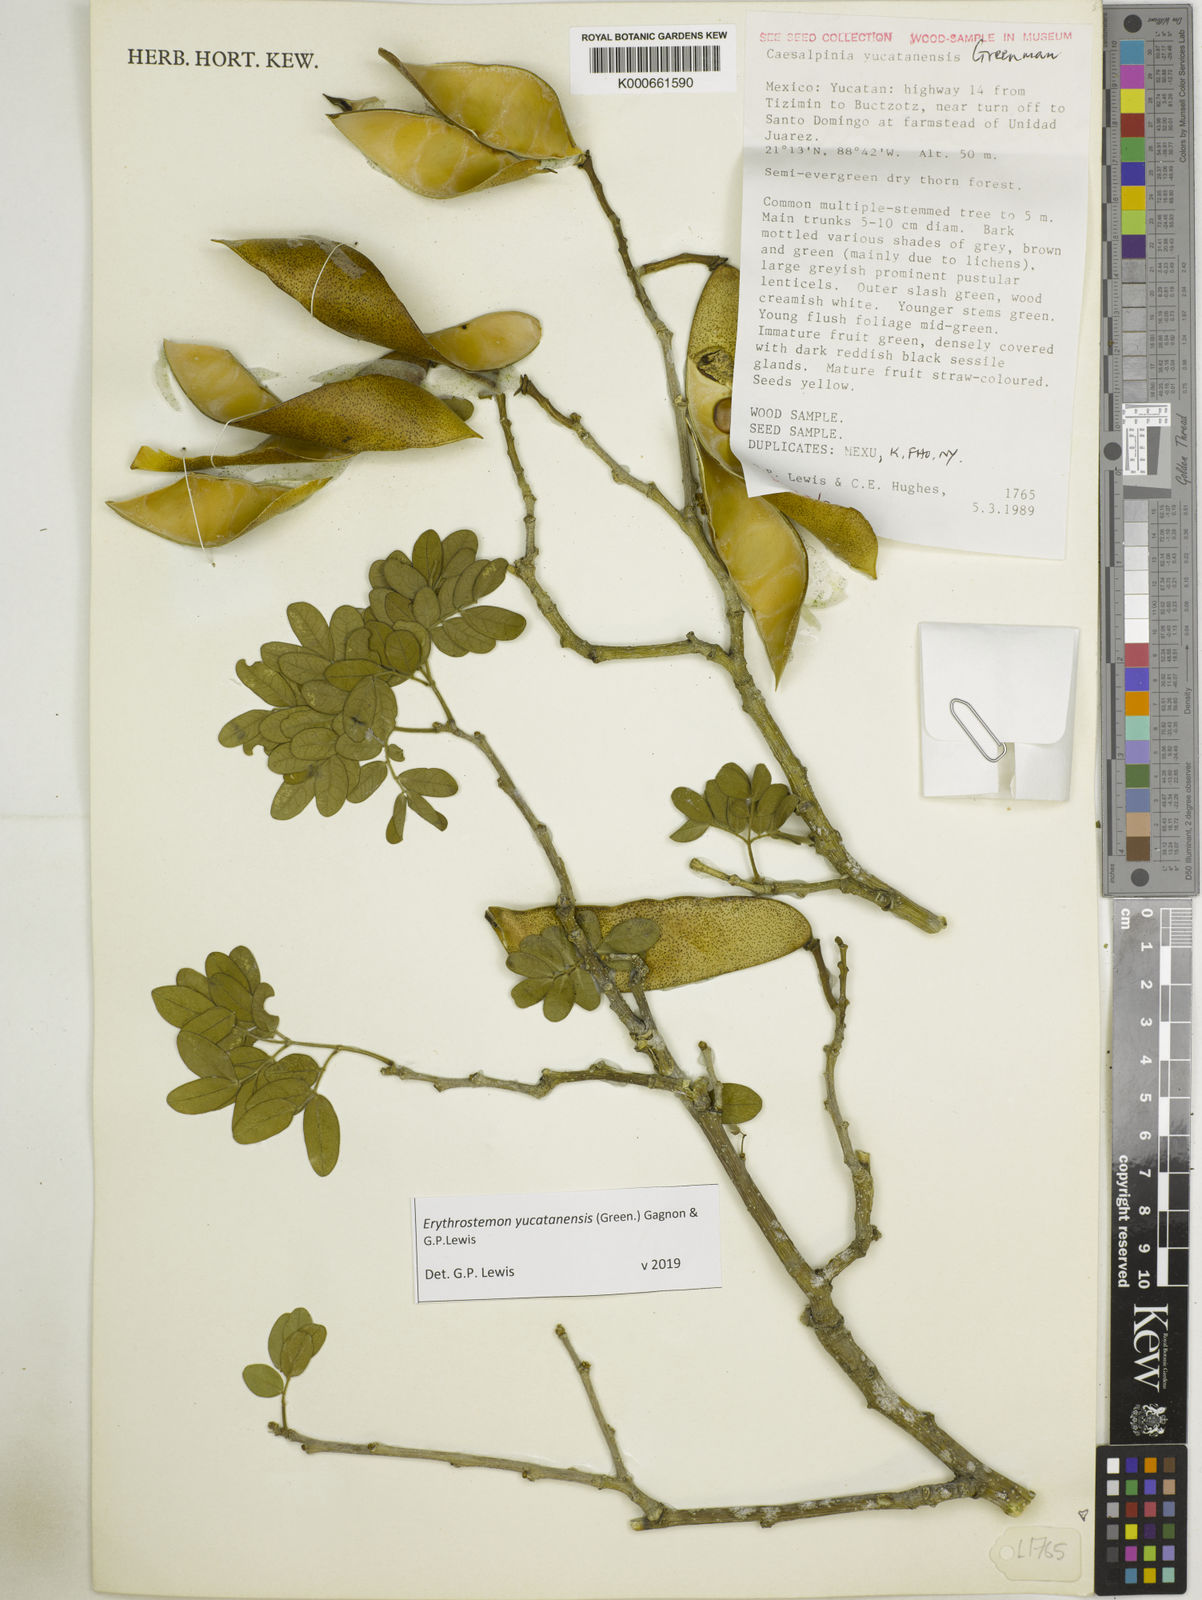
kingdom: Plantae
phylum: Tracheophyta
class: Magnoliopsida
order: Fabales
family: Fabaceae
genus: Caesalpinia
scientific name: Caesalpinia
